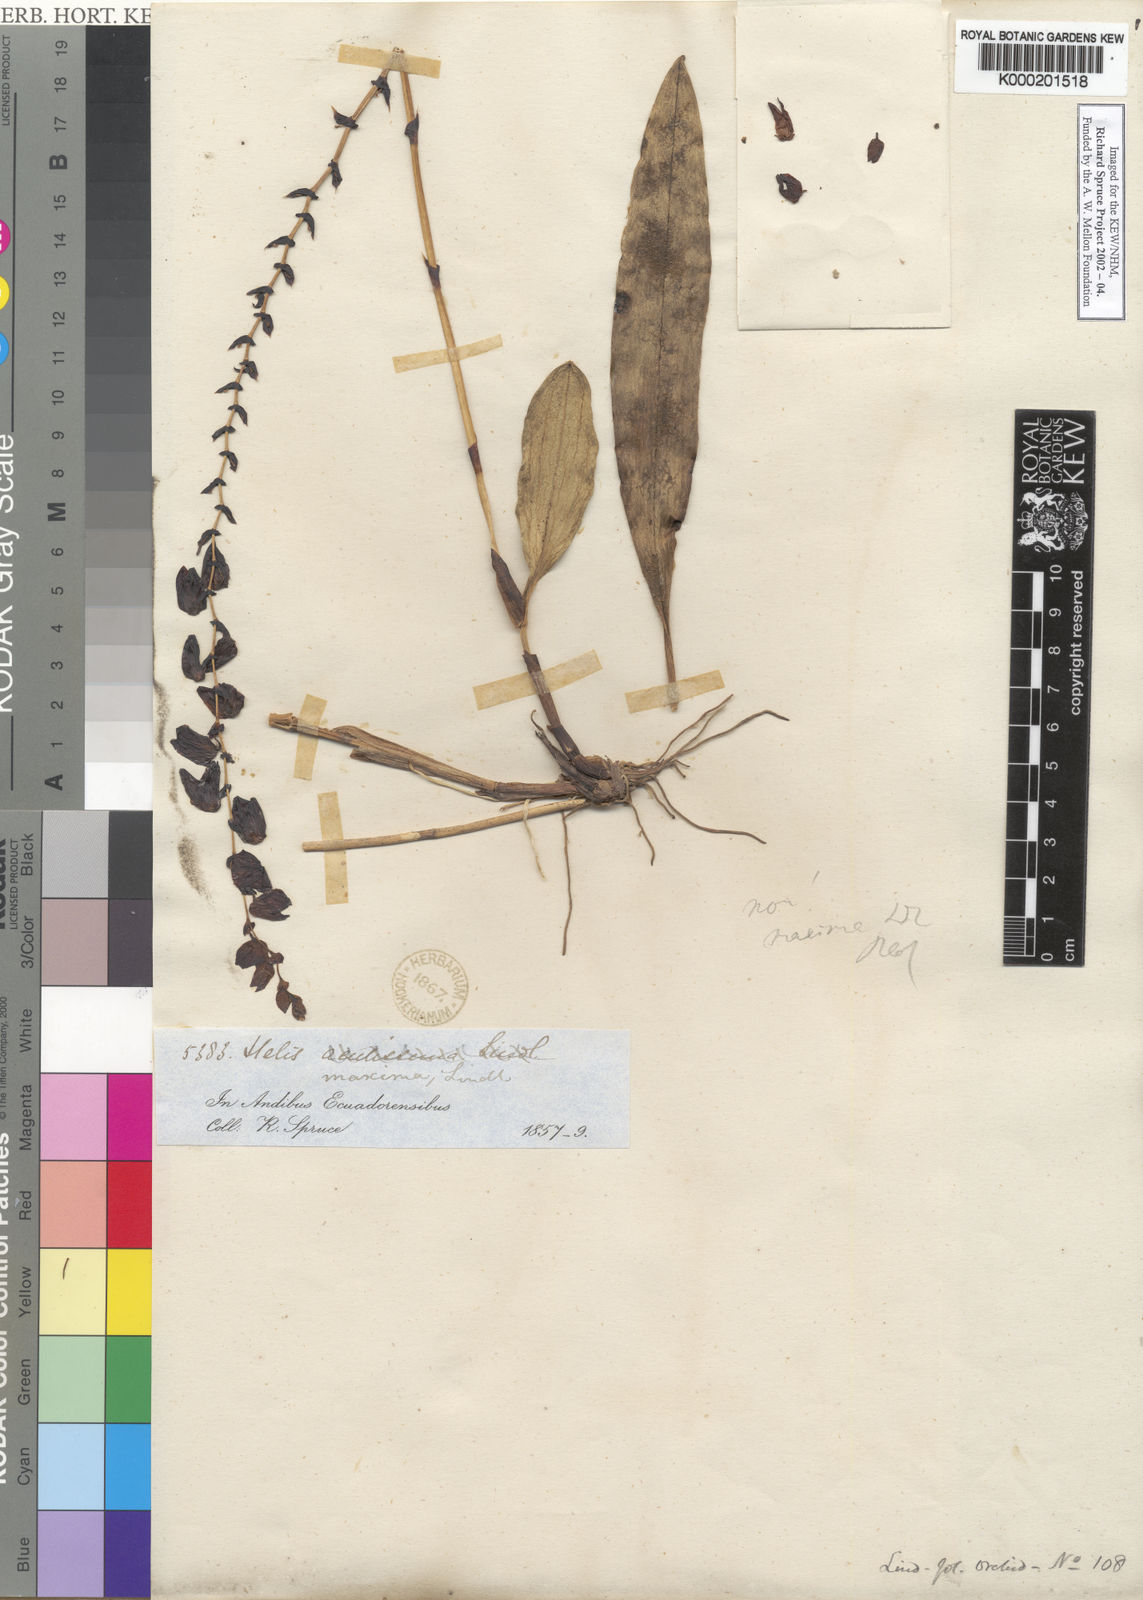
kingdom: Plantae
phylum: Tracheophyta
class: Liliopsida
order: Asparagales
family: Orchidaceae
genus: Stelis
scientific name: Stelis maxima
